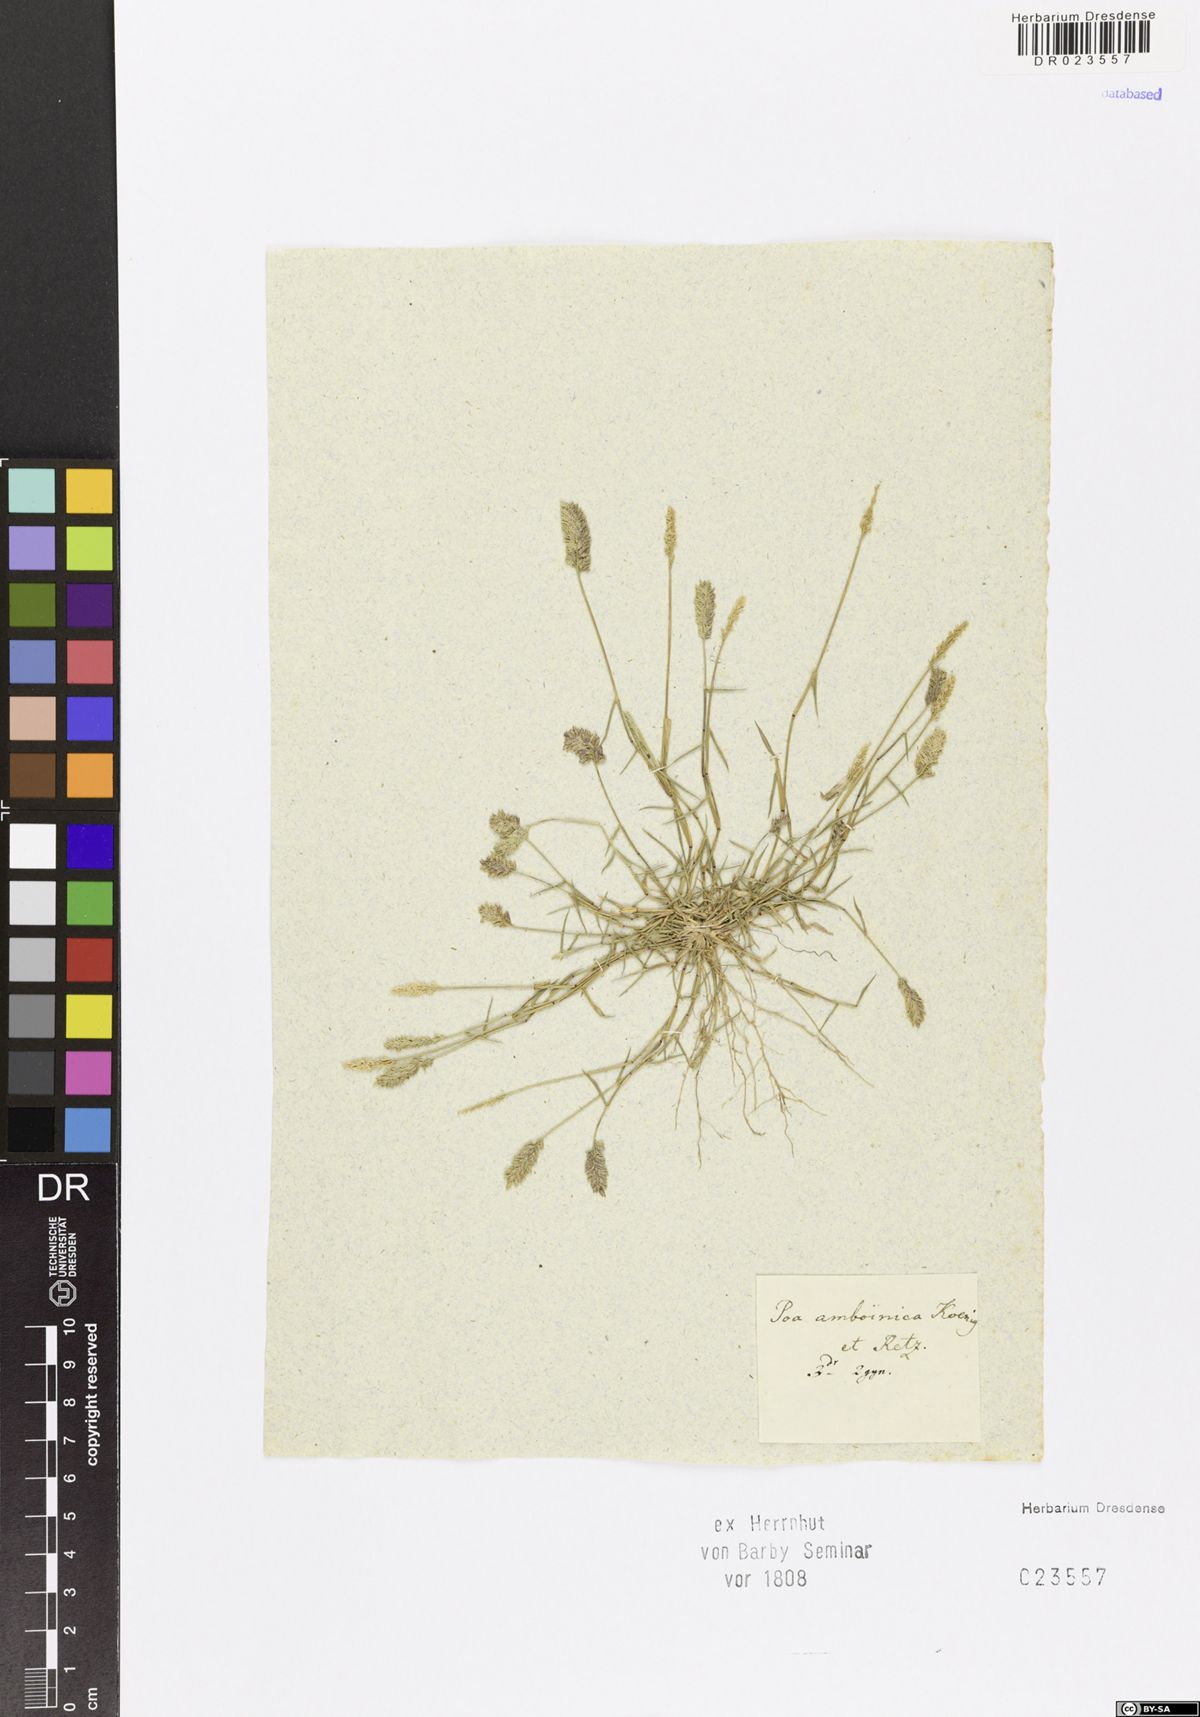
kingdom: Plantae
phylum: Tracheophyta
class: Liliopsida
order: Poales
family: Poaceae
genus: Eragrostis
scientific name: Eragrostis ciliaris
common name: Gophertail lovegrass
